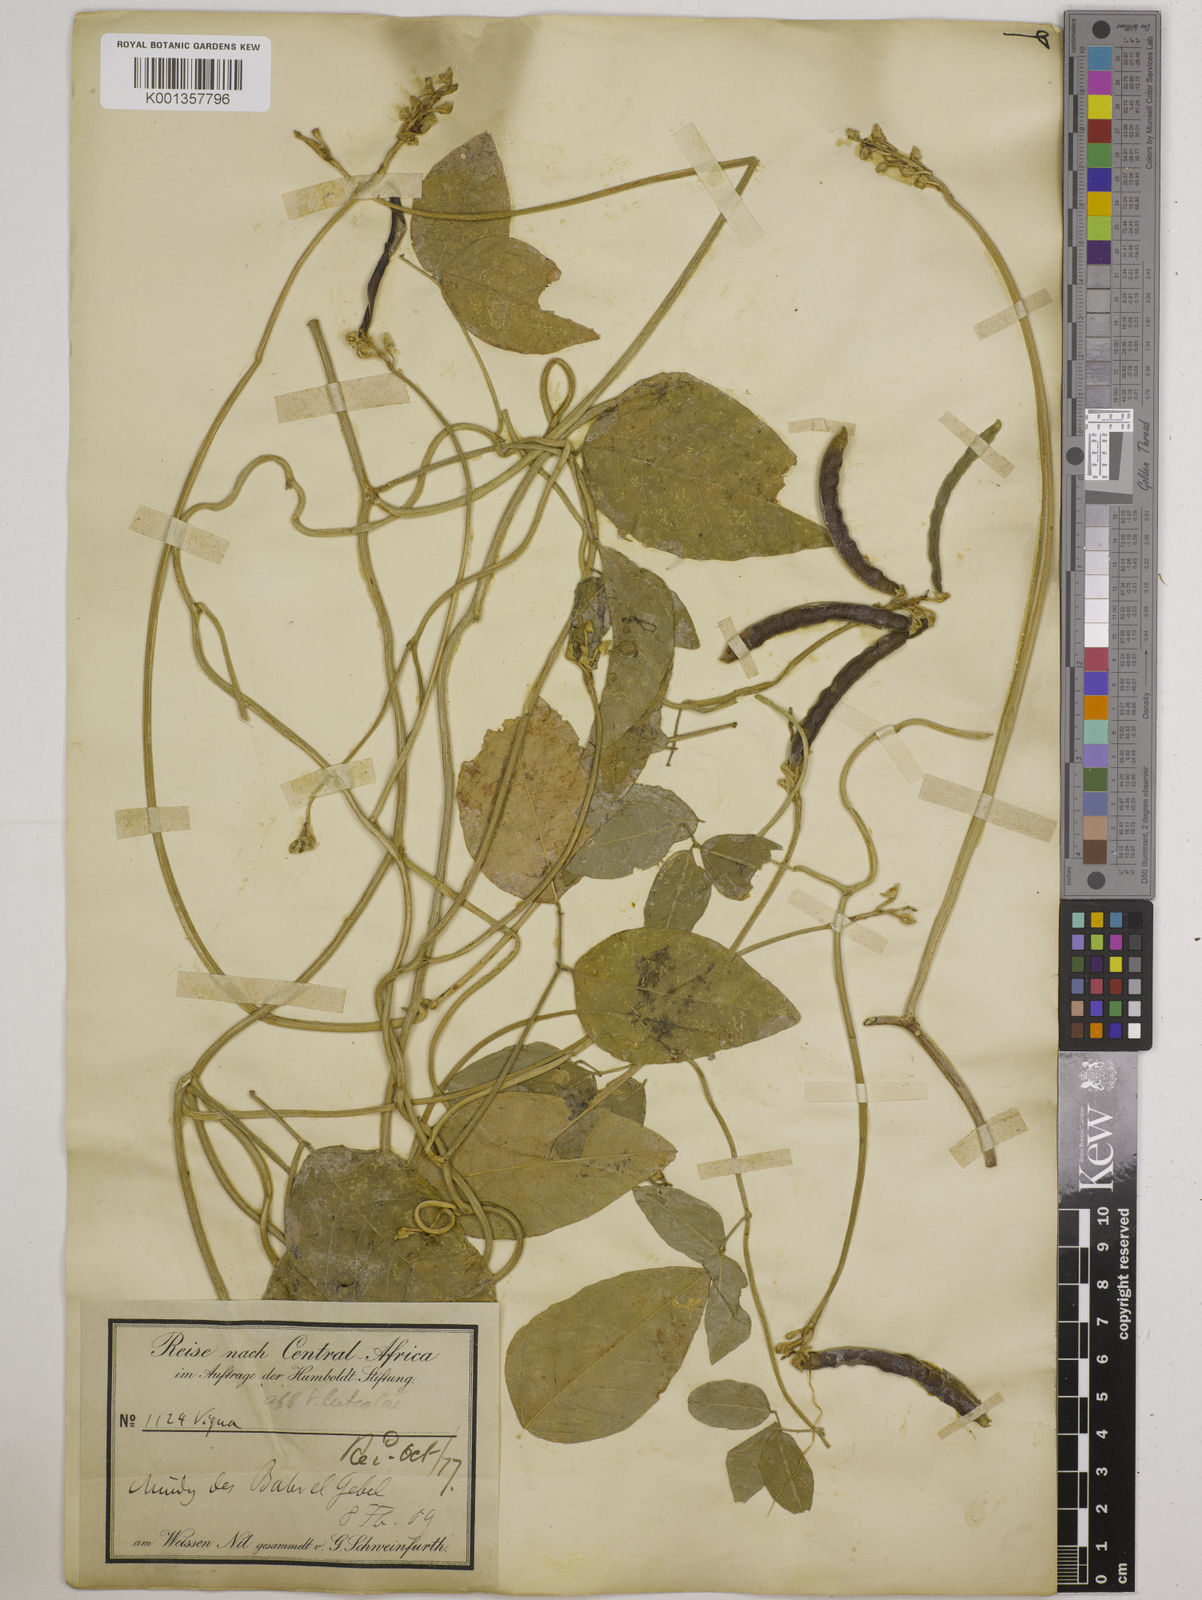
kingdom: Plantae
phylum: Tracheophyta
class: Magnoliopsida
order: Fabales
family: Fabaceae
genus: Vigna
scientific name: Vigna luteola
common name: Hairypod cowpea
